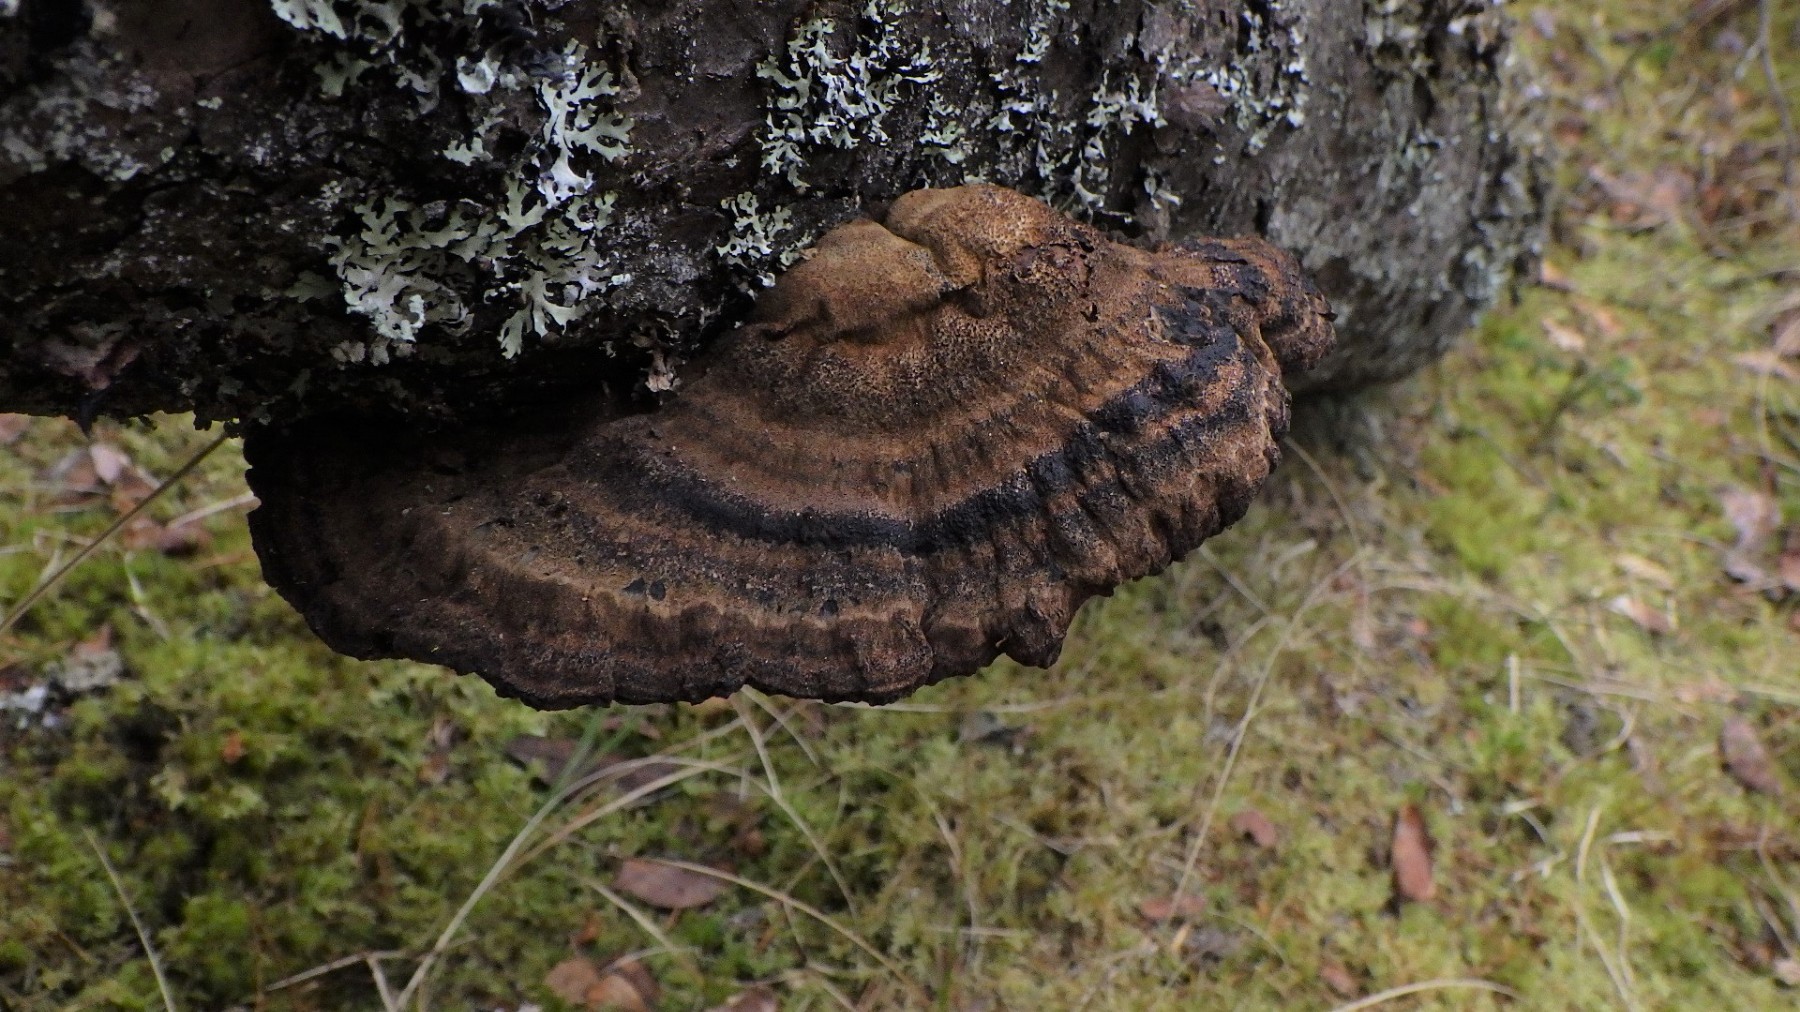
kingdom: Fungi
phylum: Basidiomycota
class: Agaricomycetes
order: Polyporales
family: Ischnodermataceae
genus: Ischnoderma
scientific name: Ischnoderma benzoinum
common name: gran-tjæreporesvamp
